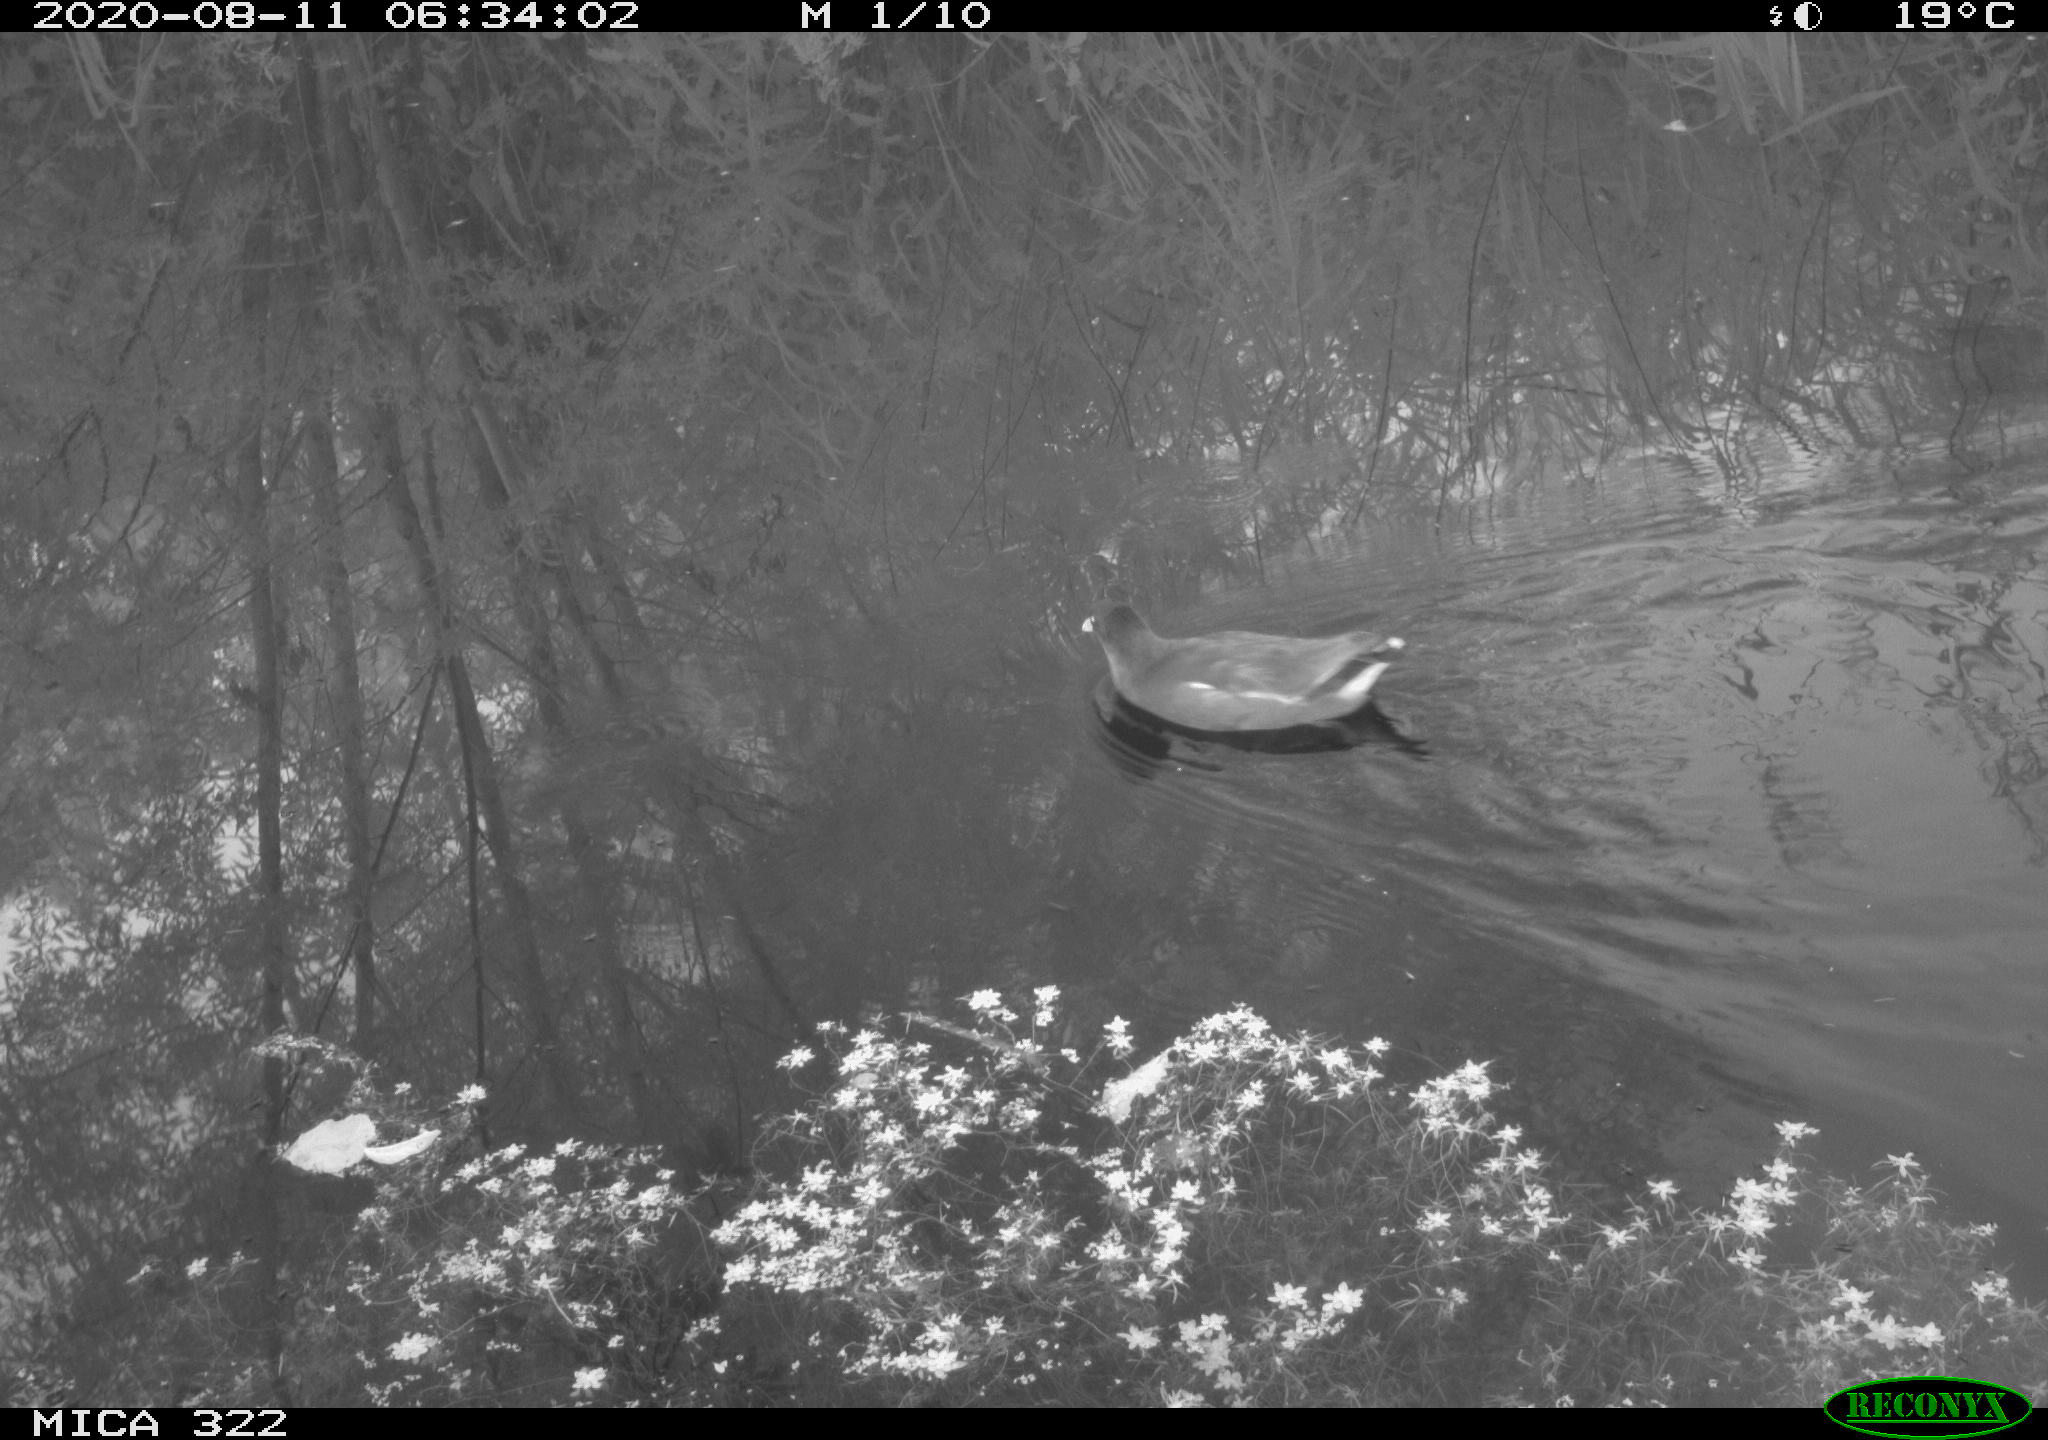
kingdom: Animalia
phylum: Chordata
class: Aves
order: Gruiformes
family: Rallidae
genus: Gallinula
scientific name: Gallinula chloropus
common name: Common moorhen
